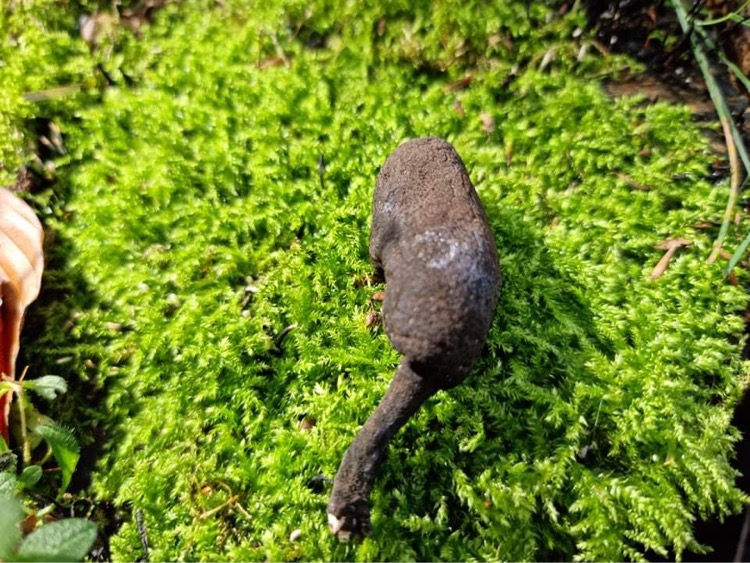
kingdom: Fungi
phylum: Ascomycota
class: Sordariomycetes
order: Xylariales
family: Xylariaceae
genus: Xylaria
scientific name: Xylaria polymorpha
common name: kølle-stødsvamp
